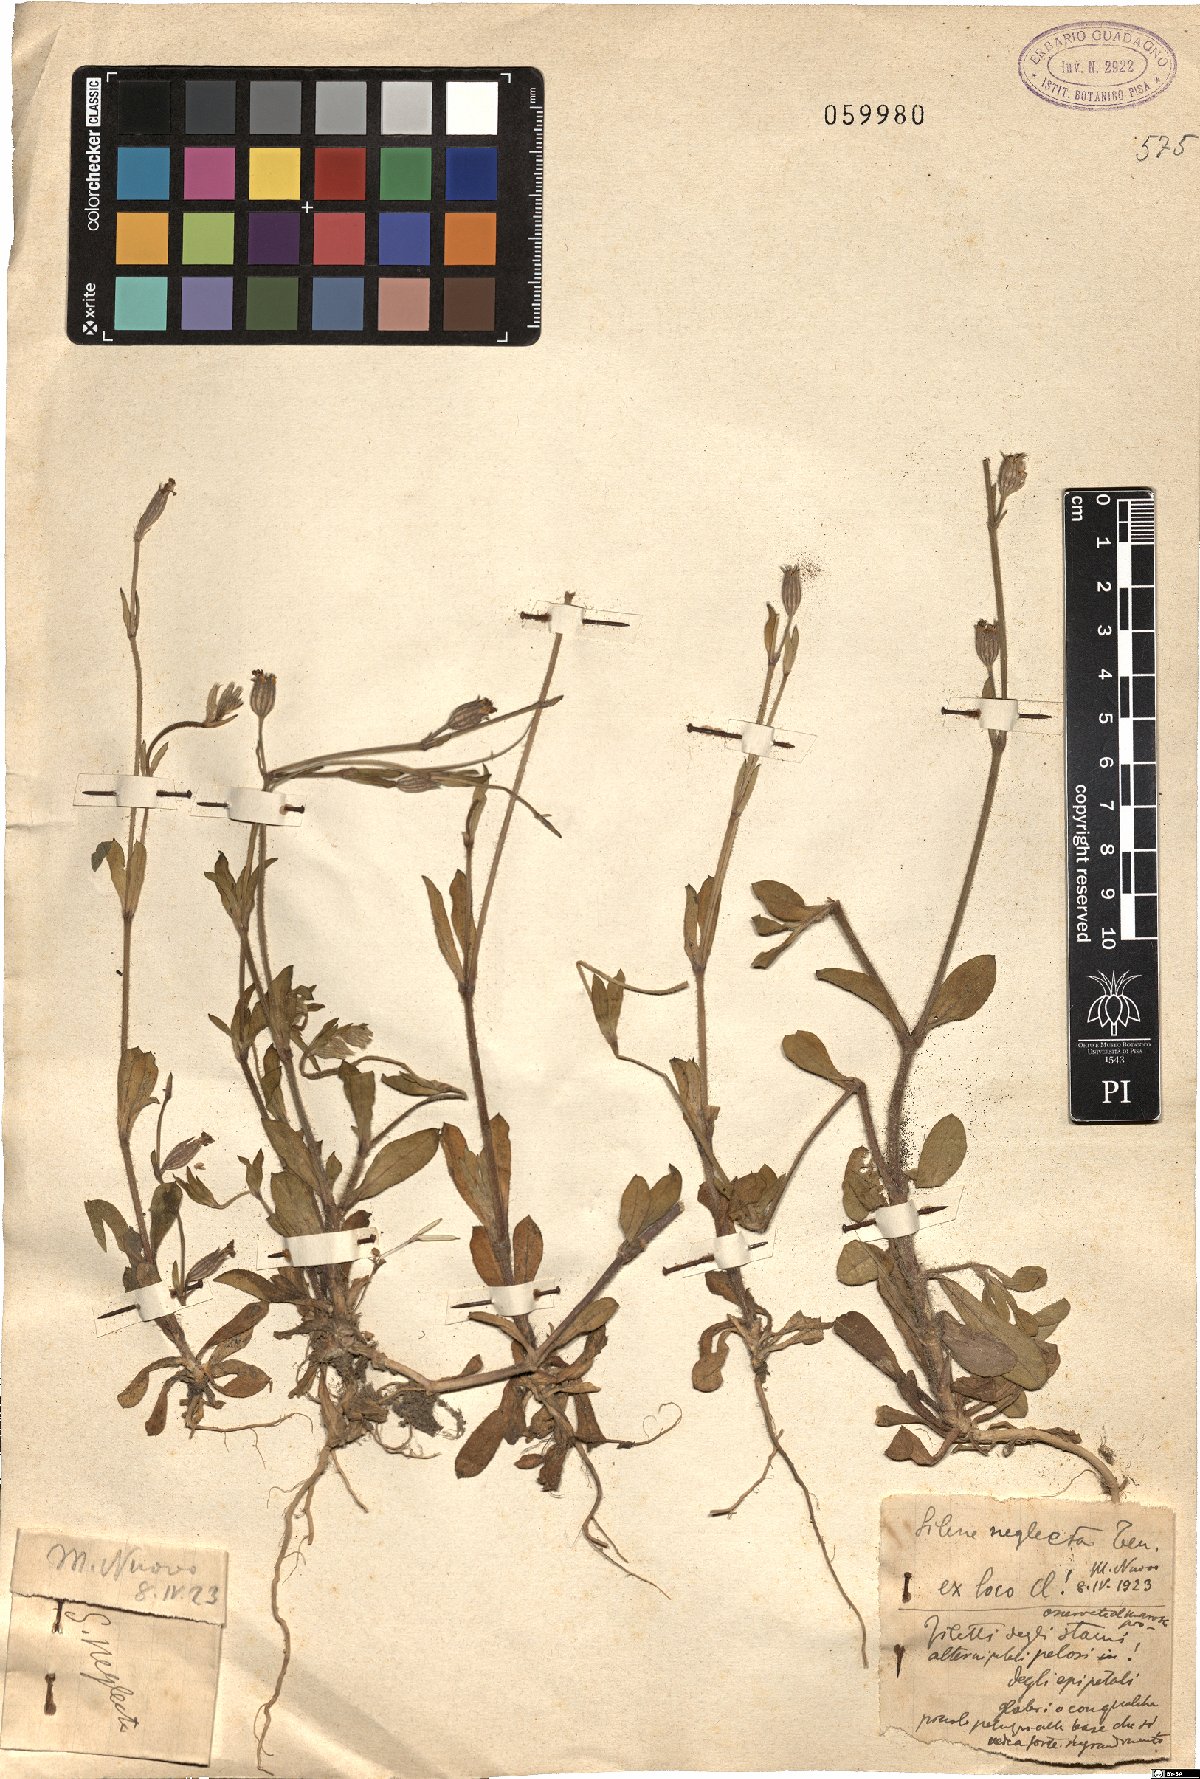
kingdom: Plantae
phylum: Tracheophyta
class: Magnoliopsida
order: Caryophyllales
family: Caryophyllaceae
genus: Silene
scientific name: Silene neglecta
